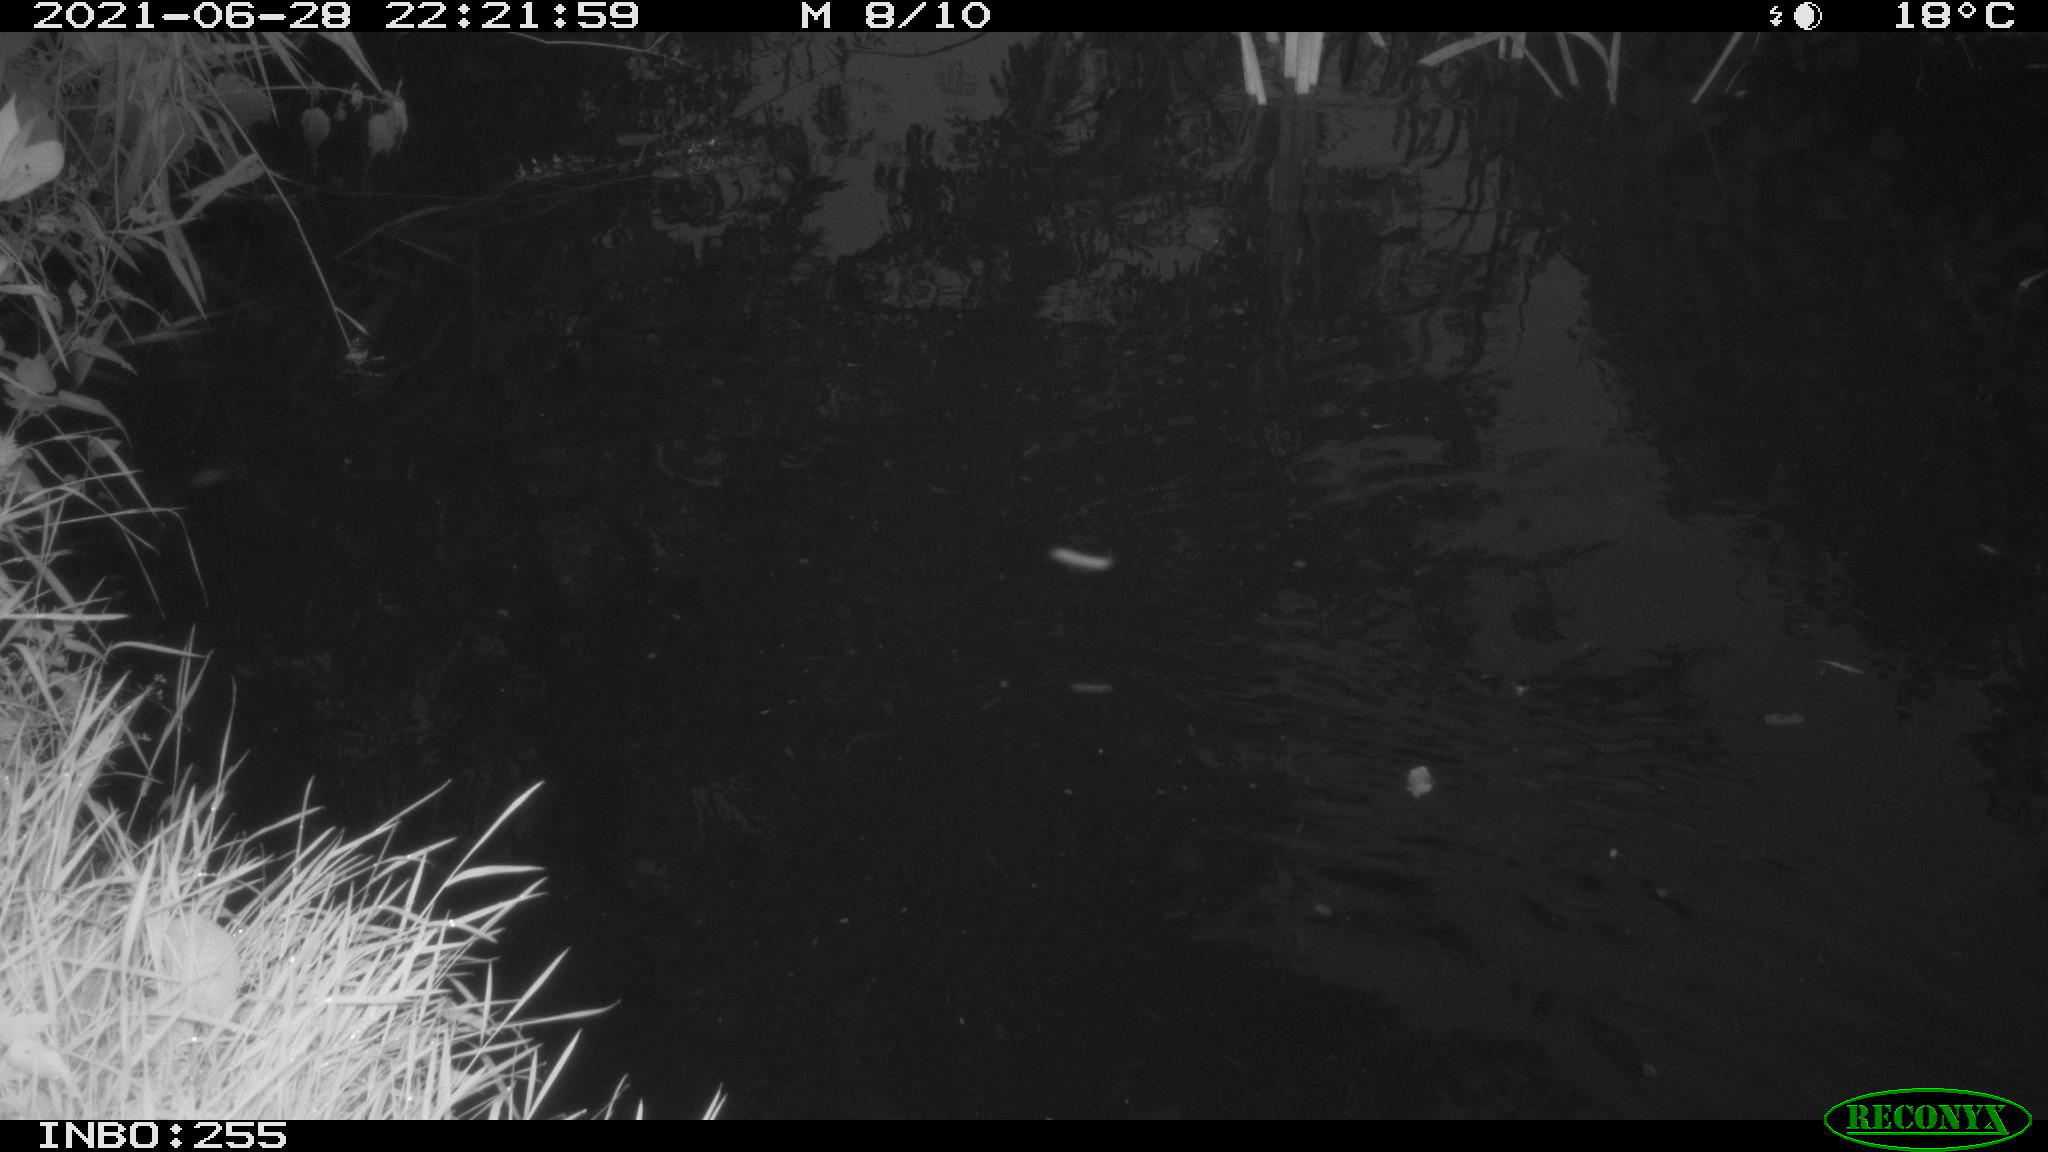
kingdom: Animalia
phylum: Chordata
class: Aves
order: Anseriformes
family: Anatidae
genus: Anas
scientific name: Anas platyrhynchos
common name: Mallard
